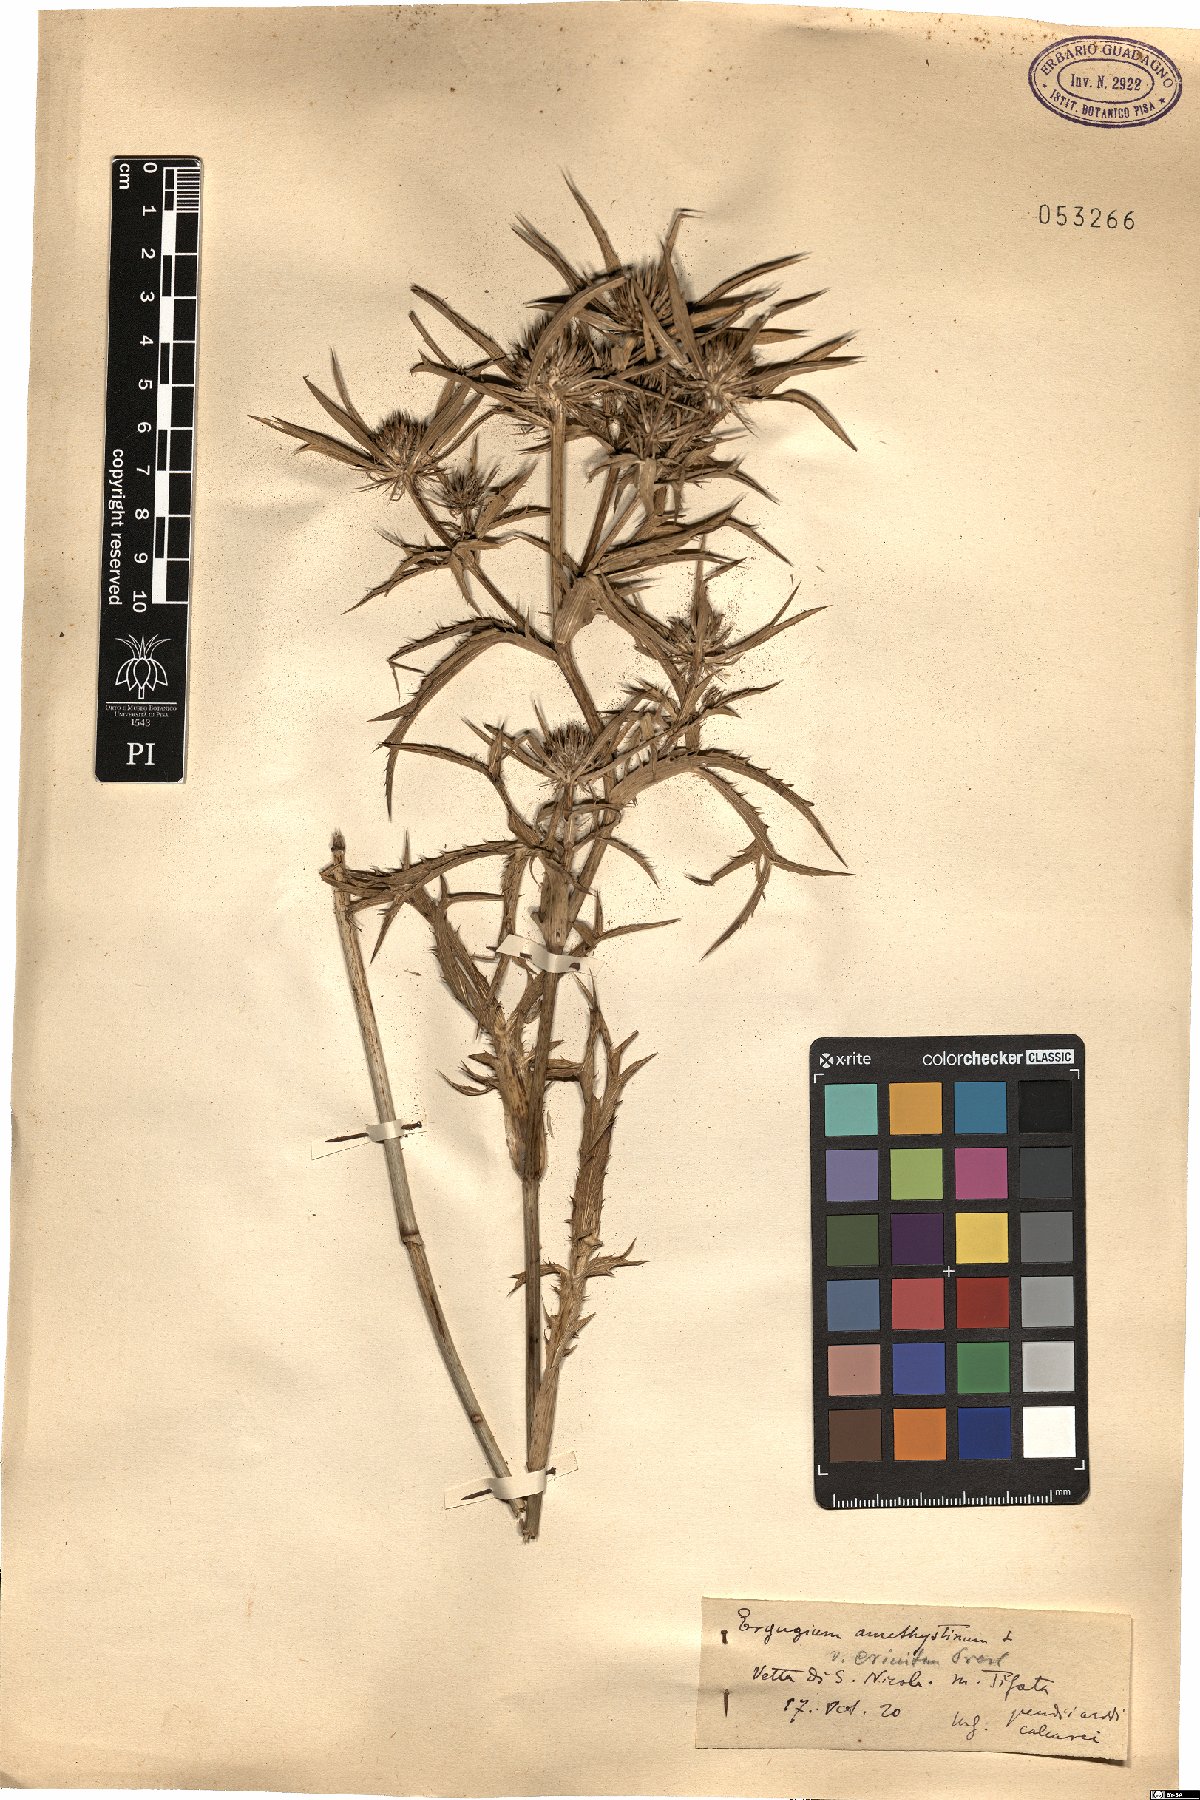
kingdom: Plantae
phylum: Tracheophyta
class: Magnoliopsida
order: Apiales
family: Apiaceae
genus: Eryngium
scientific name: Eryngium amethystinum
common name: Amethyst eryngo
